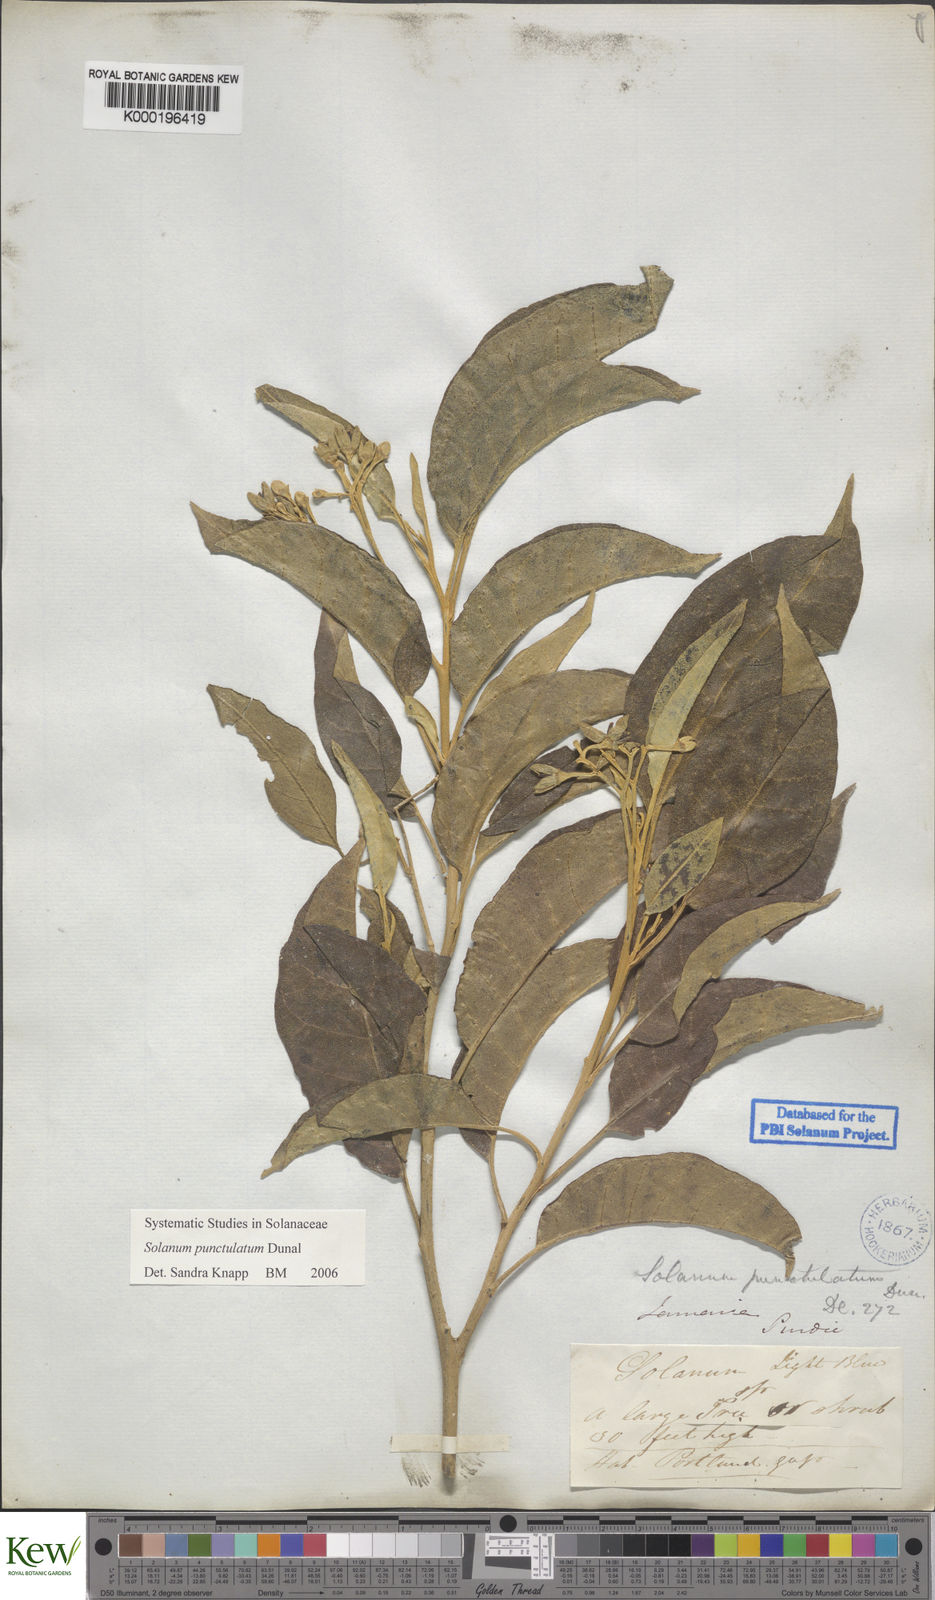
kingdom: Plantae
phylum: Tracheophyta
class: Magnoliopsida
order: Solanales
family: Solanaceae
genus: Solanum
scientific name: Solanum punctulatum
